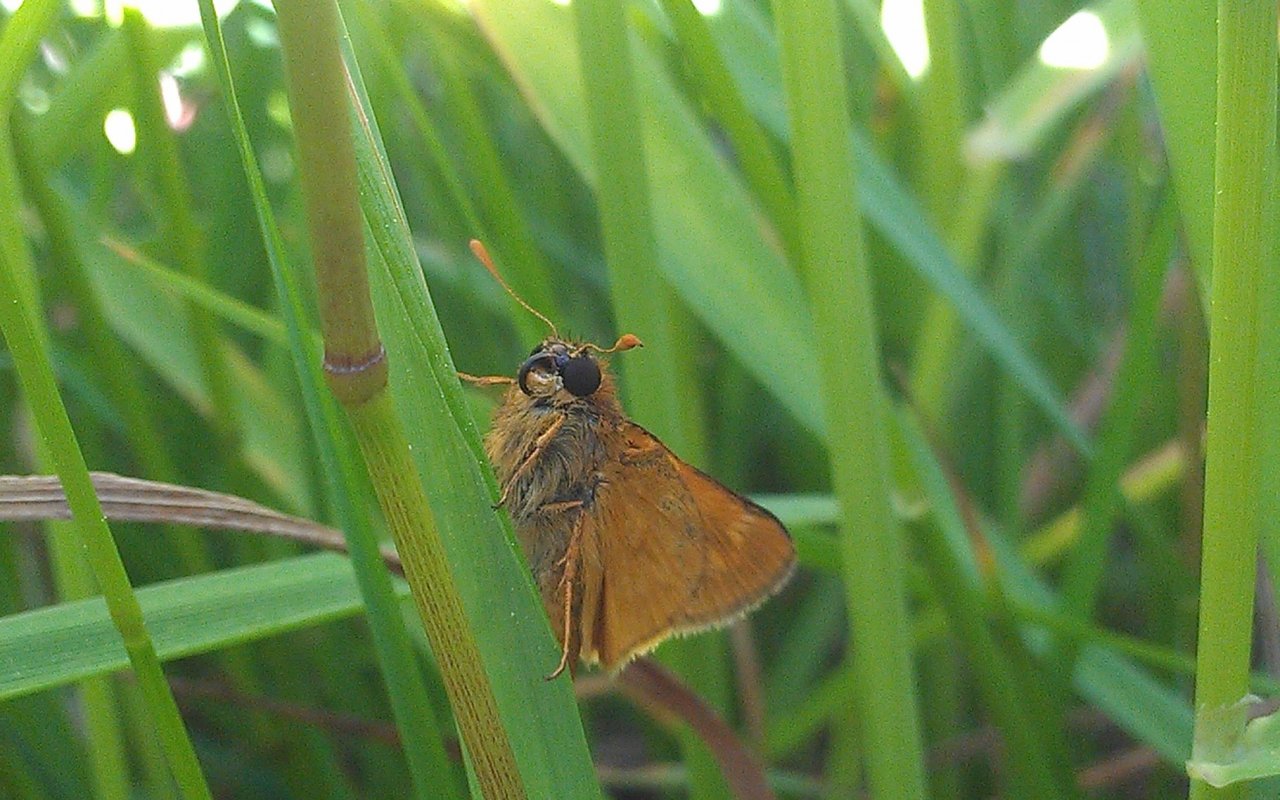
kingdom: Animalia
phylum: Arthropoda
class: Insecta
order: Lepidoptera
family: Hesperiidae
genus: Polites
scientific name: Polites
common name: Long Dash Skipper
